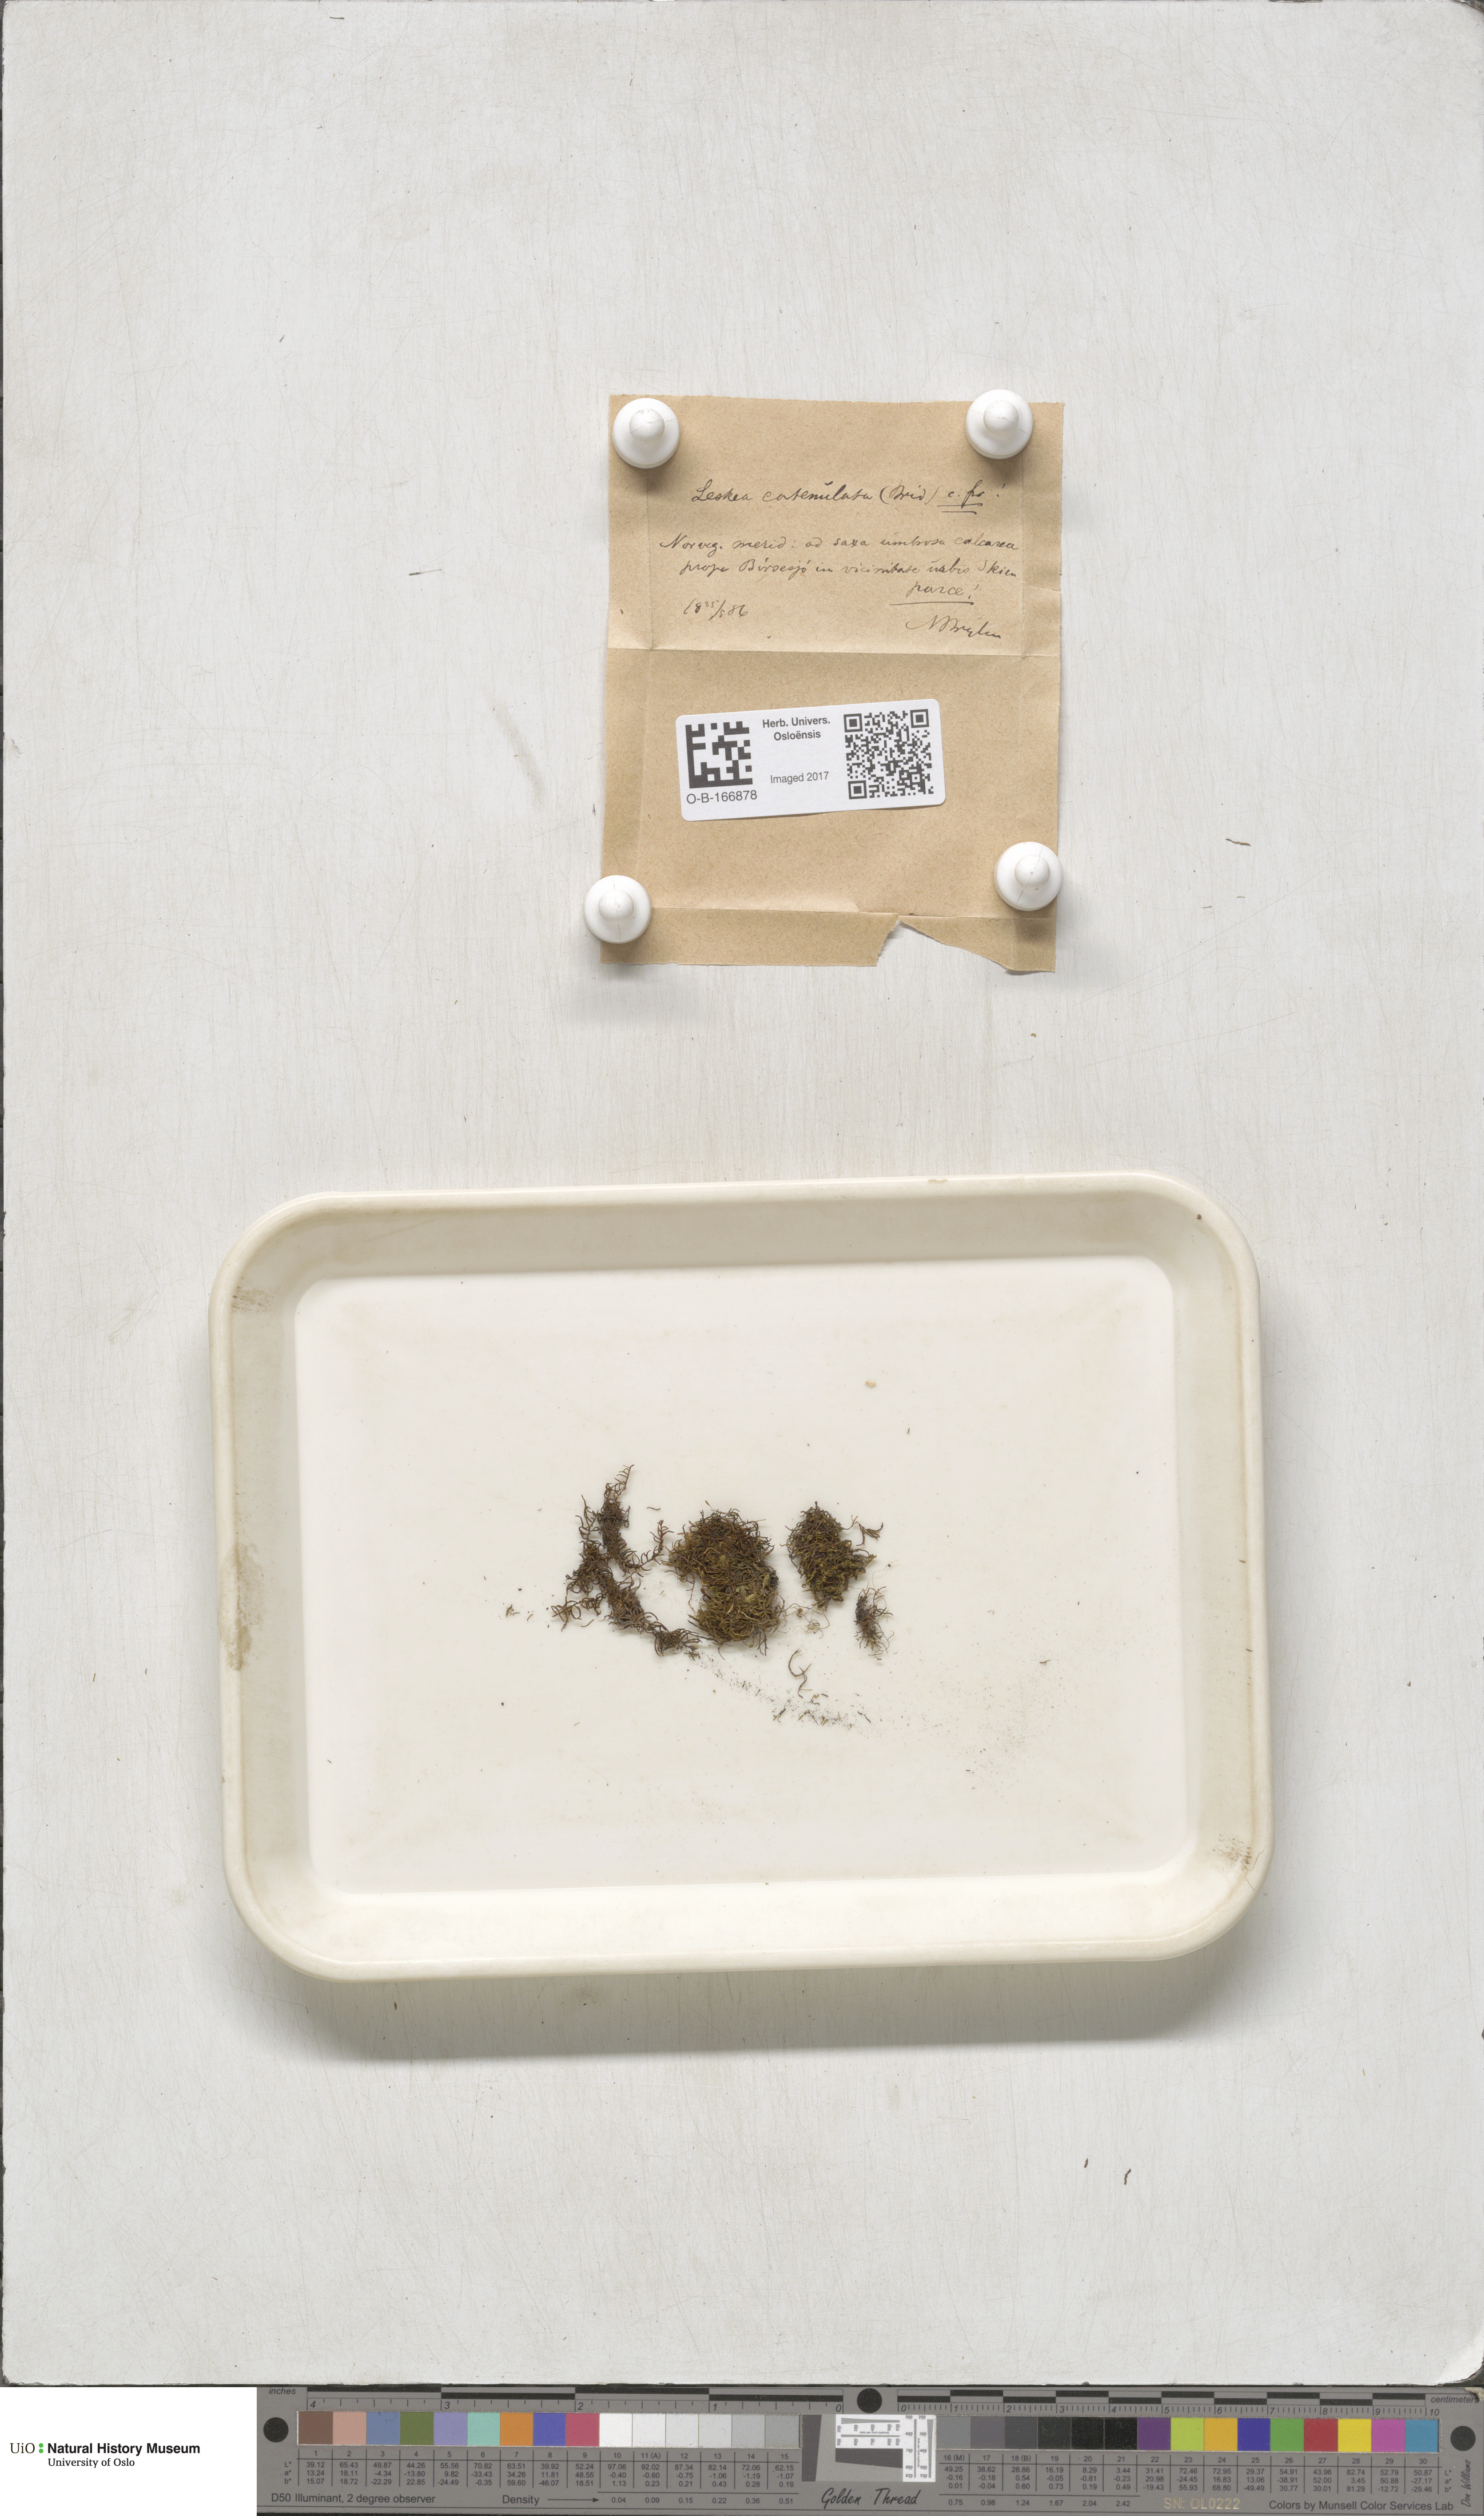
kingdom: Plantae
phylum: Bryophyta
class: Bryopsida
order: Hypnales
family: Pseudoleskeellaceae
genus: Pseudoleskeella
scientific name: Pseudoleskeella catenulata
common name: Chained leskea
